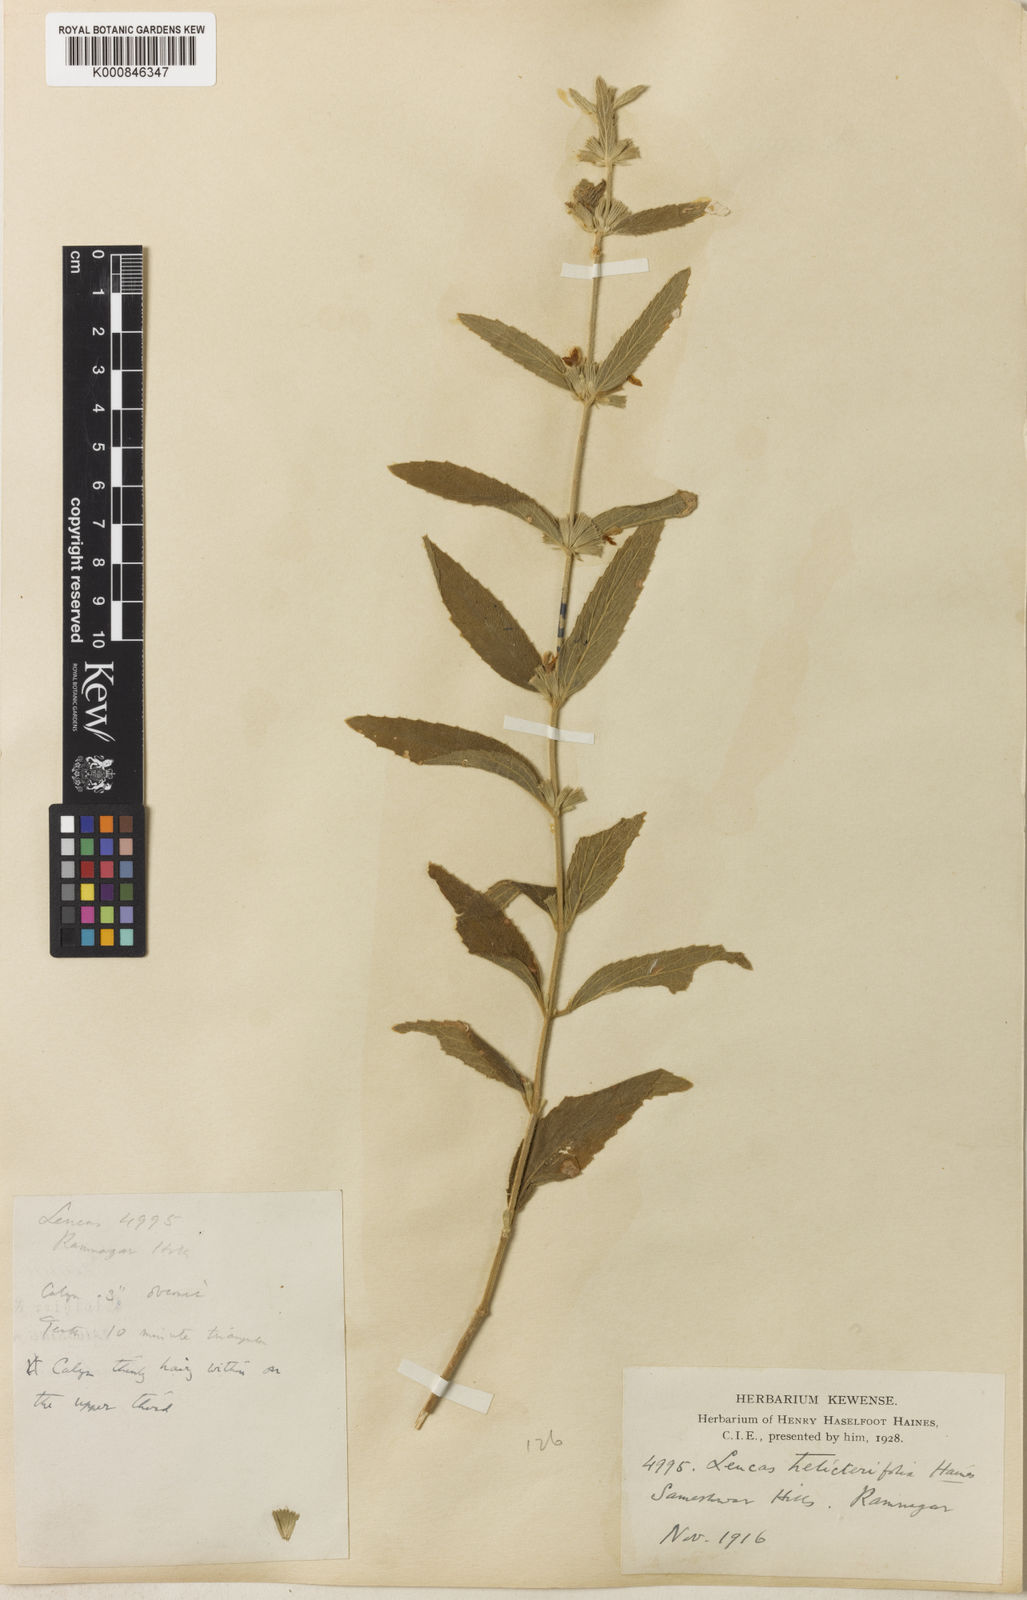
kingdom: Plantae
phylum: Tracheophyta
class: Magnoliopsida
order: Lamiales
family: Lamiaceae
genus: Leucas
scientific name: Leucas helicterifolia
